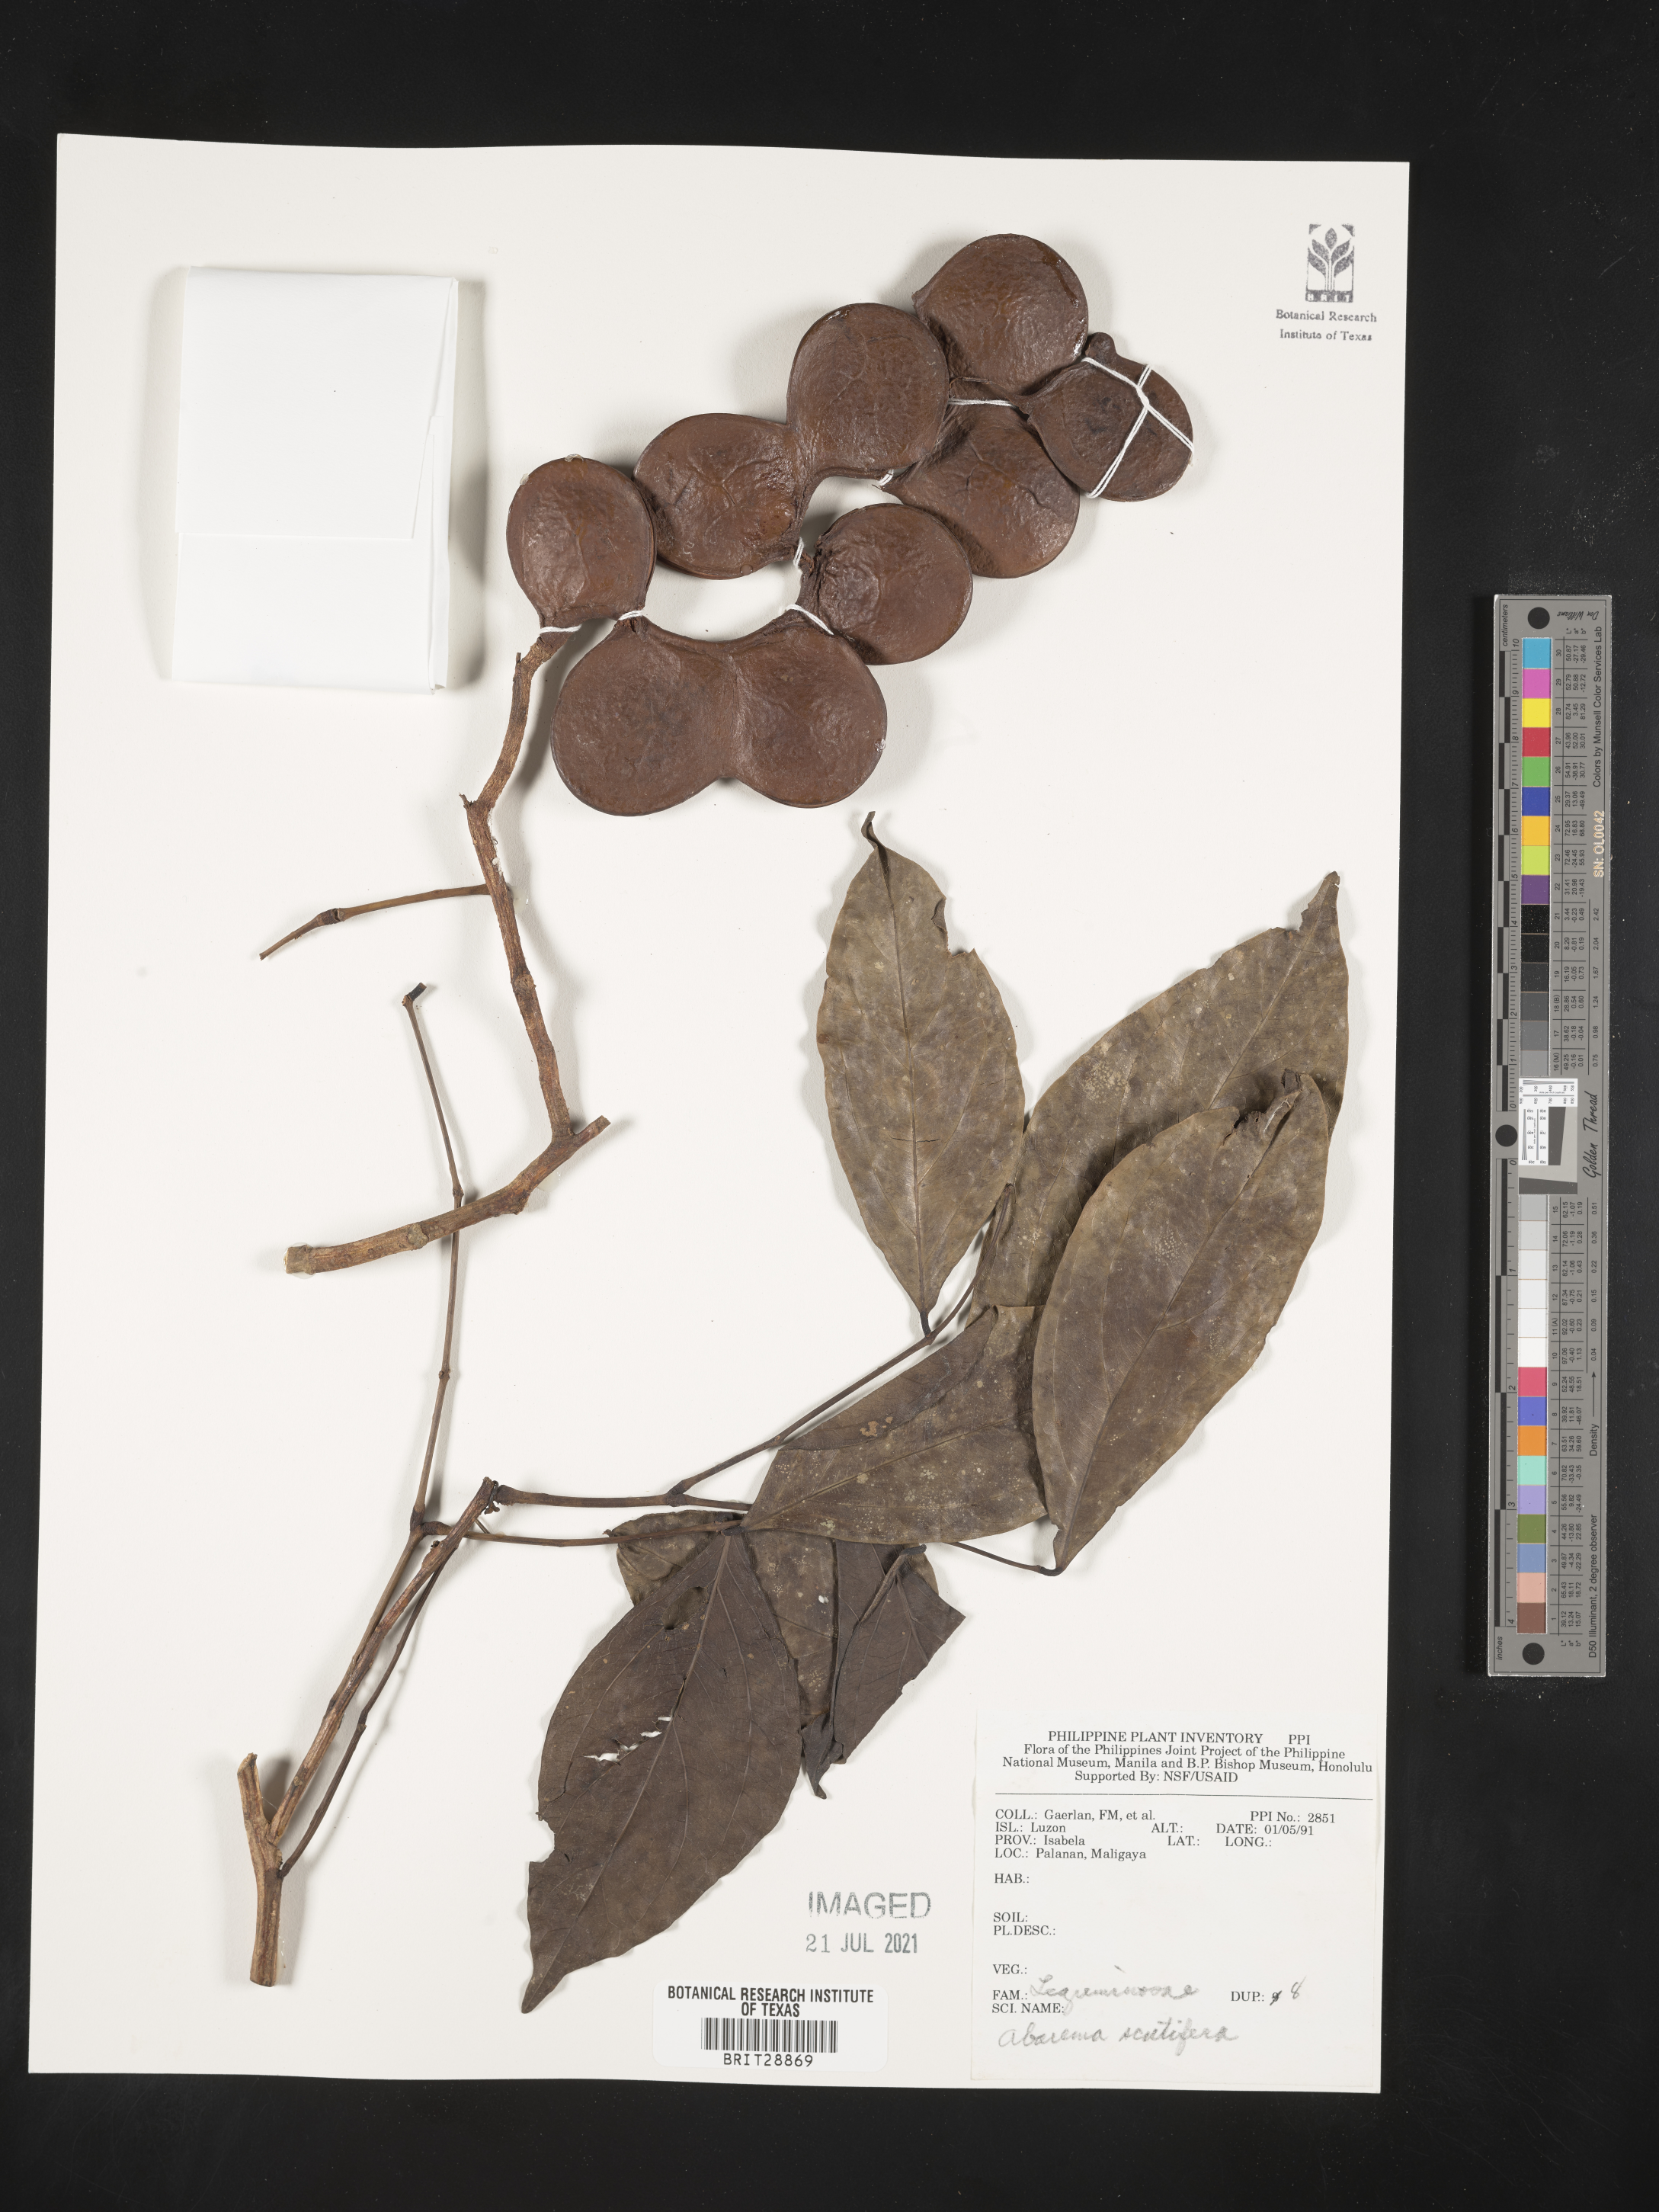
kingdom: Plantae
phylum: Tracheophyta
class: Magnoliopsida
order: Fabales
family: Fabaceae
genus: Archidendron
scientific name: Archidendron scutiferum
